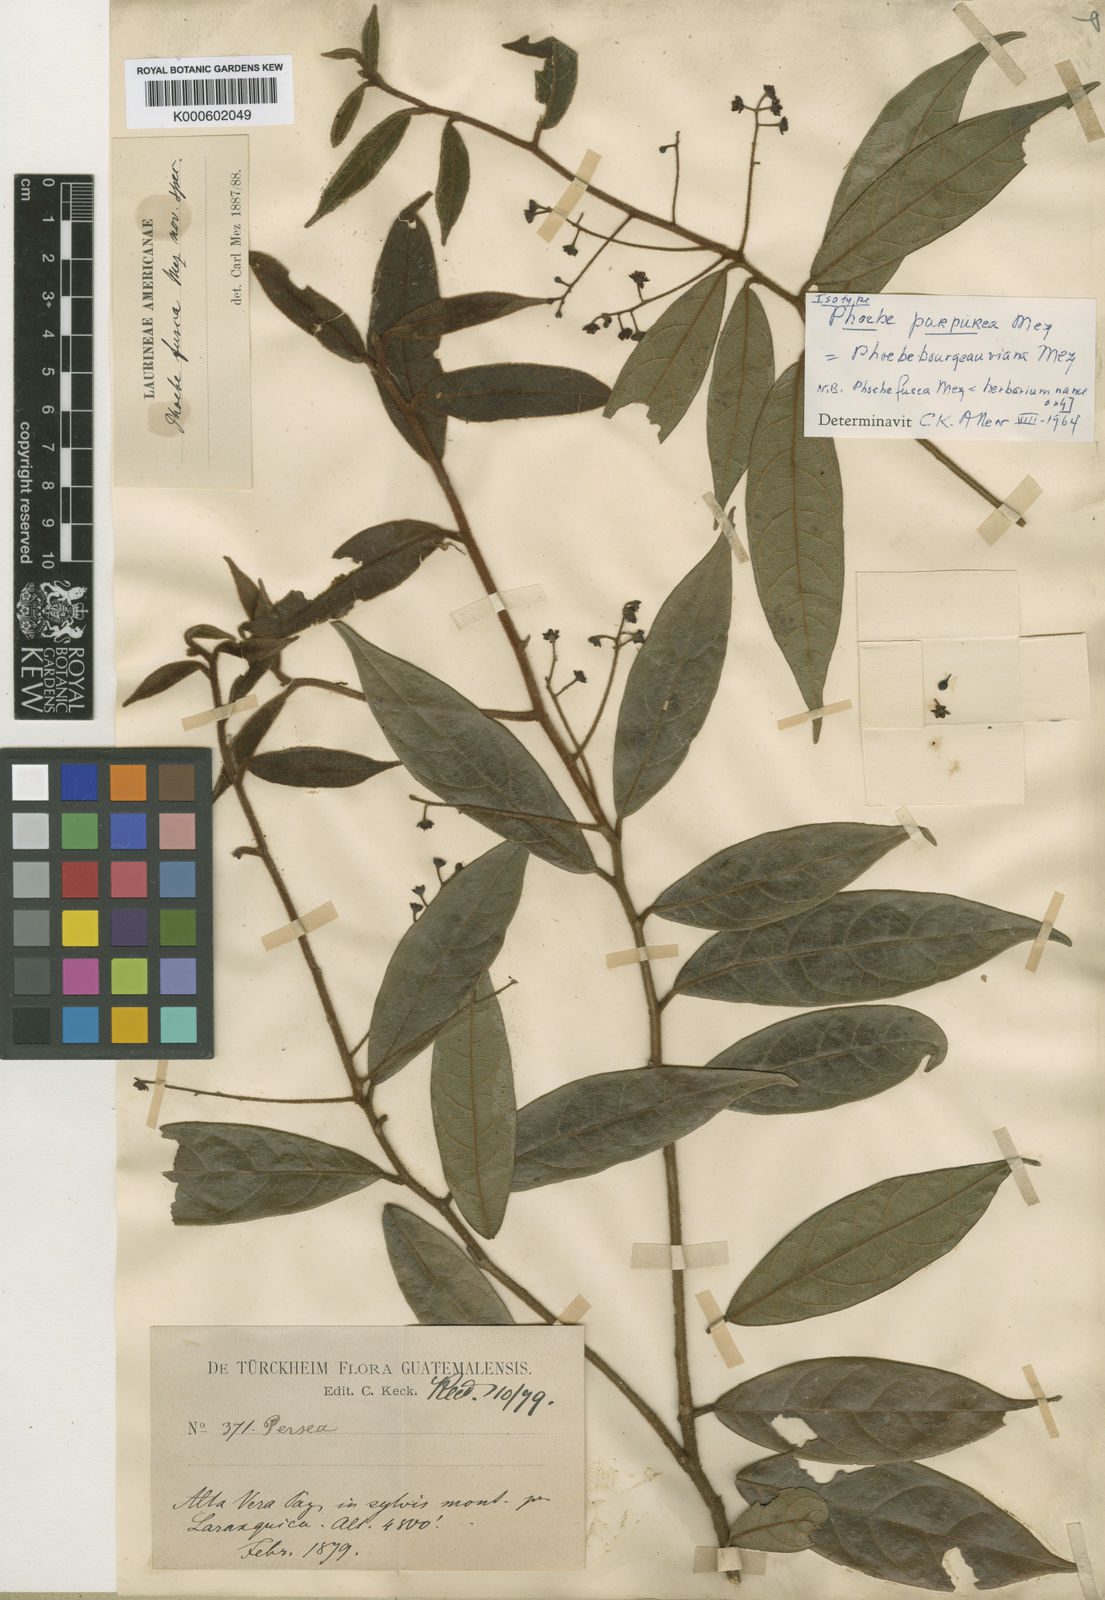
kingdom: Plantae
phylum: Tracheophyta
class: Magnoliopsida
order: Laurales
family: Lauraceae
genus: Ocotea
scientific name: Ocotea purpurea
